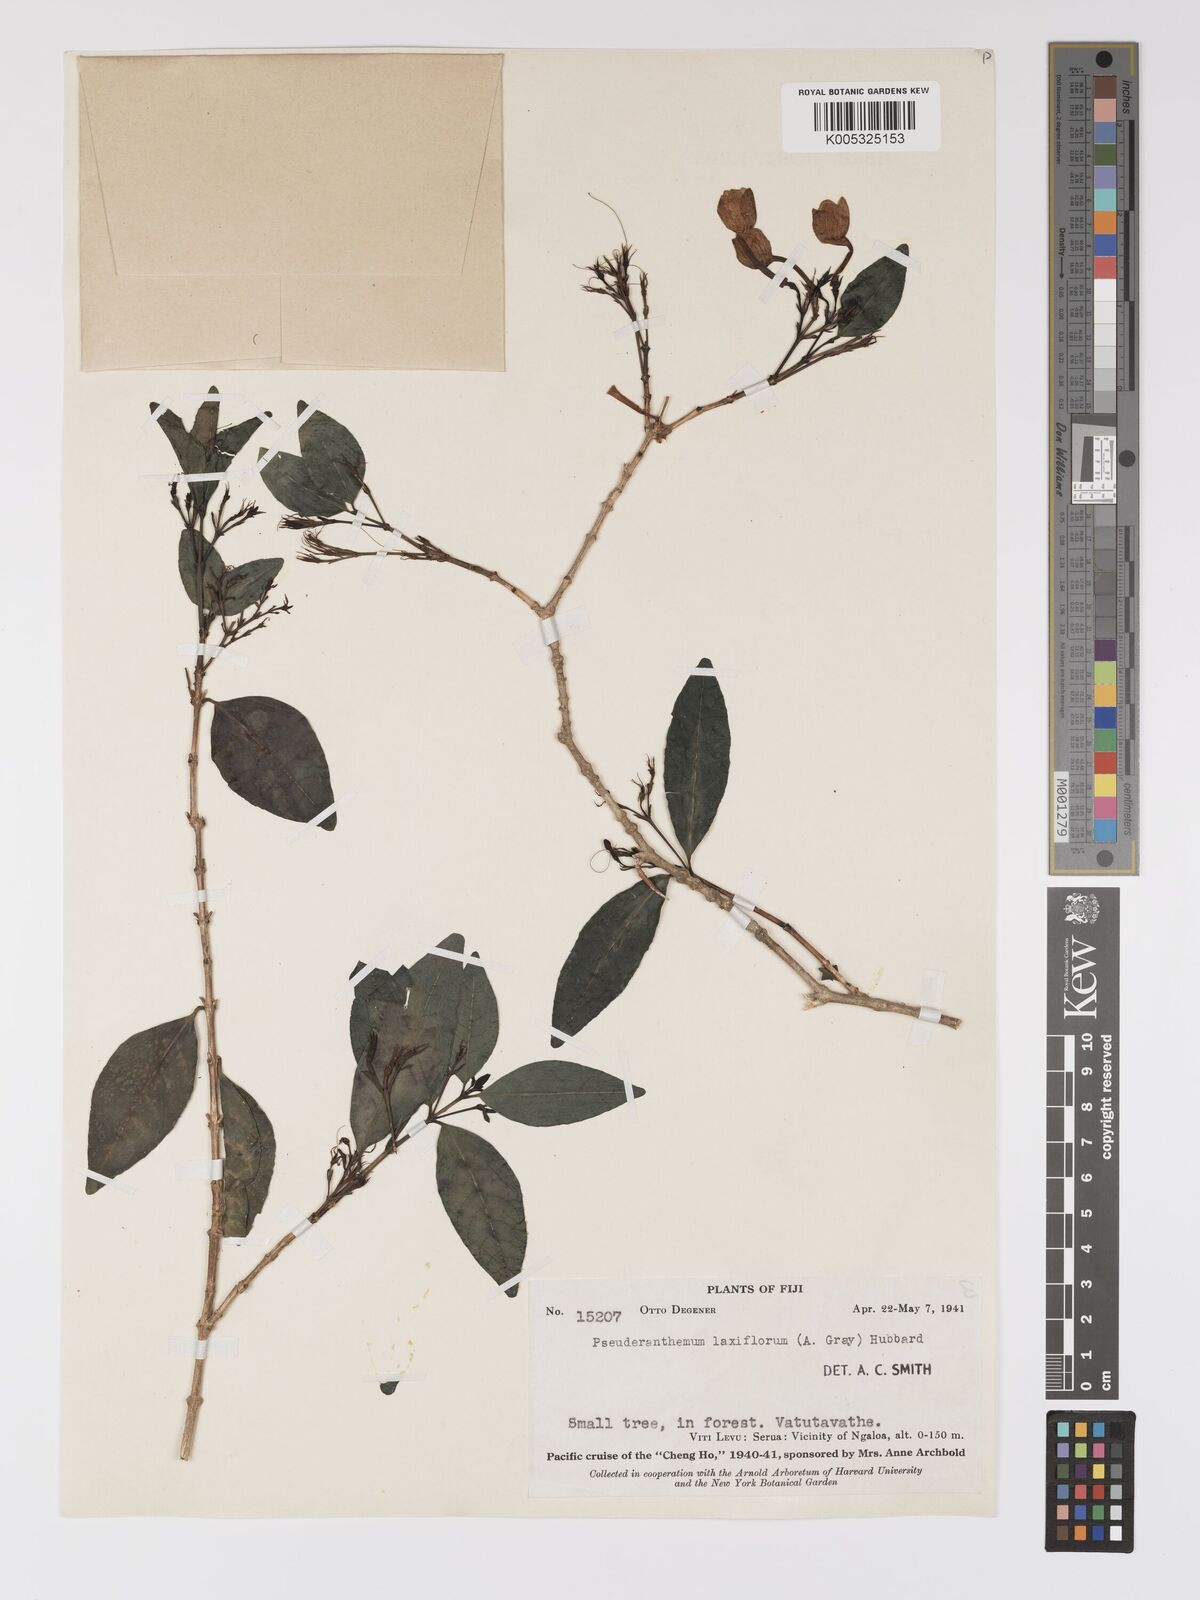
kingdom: Plantae
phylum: Tracheophyta
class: Magnoliopsida
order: Lamiales
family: Acanthaceae
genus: Pseuderanthemum
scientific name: Pseuderanthemum laxiflorum
